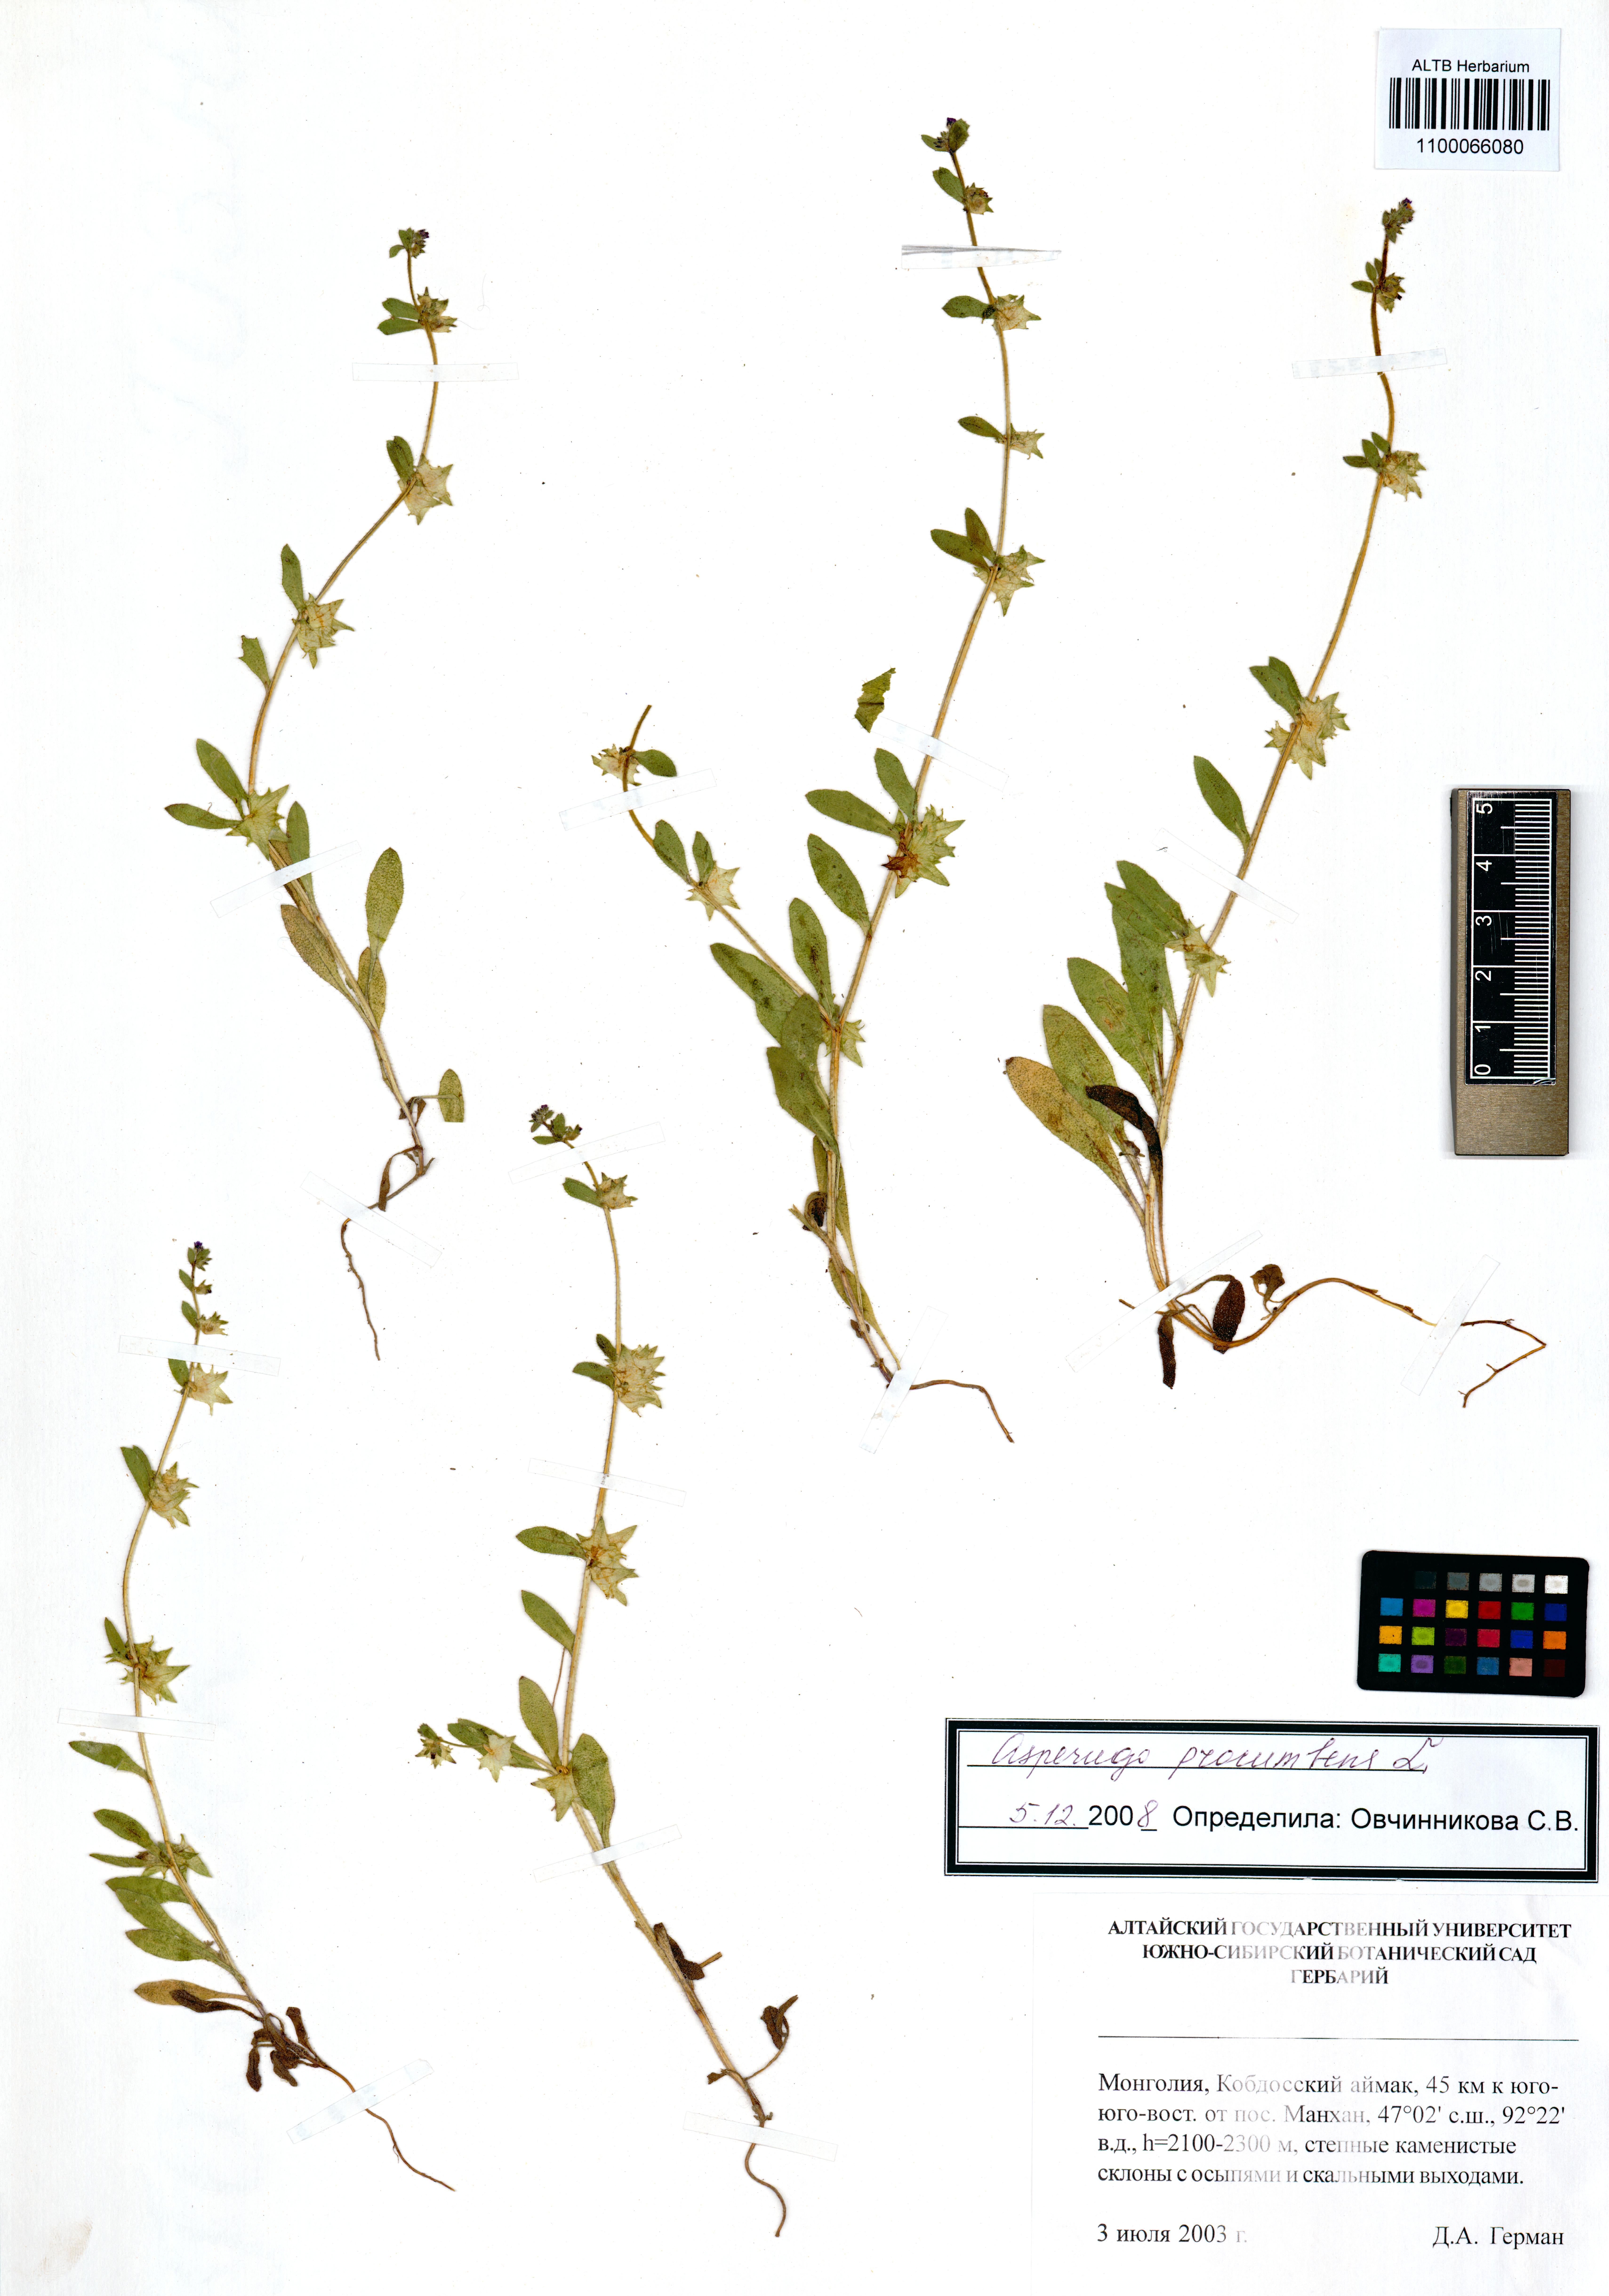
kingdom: Plantae
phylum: Tracheophyta
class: Magnoliopsida
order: Boraginales
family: Boraginaceae
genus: Asperugo
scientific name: Asperugo procumbens
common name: Madwort
